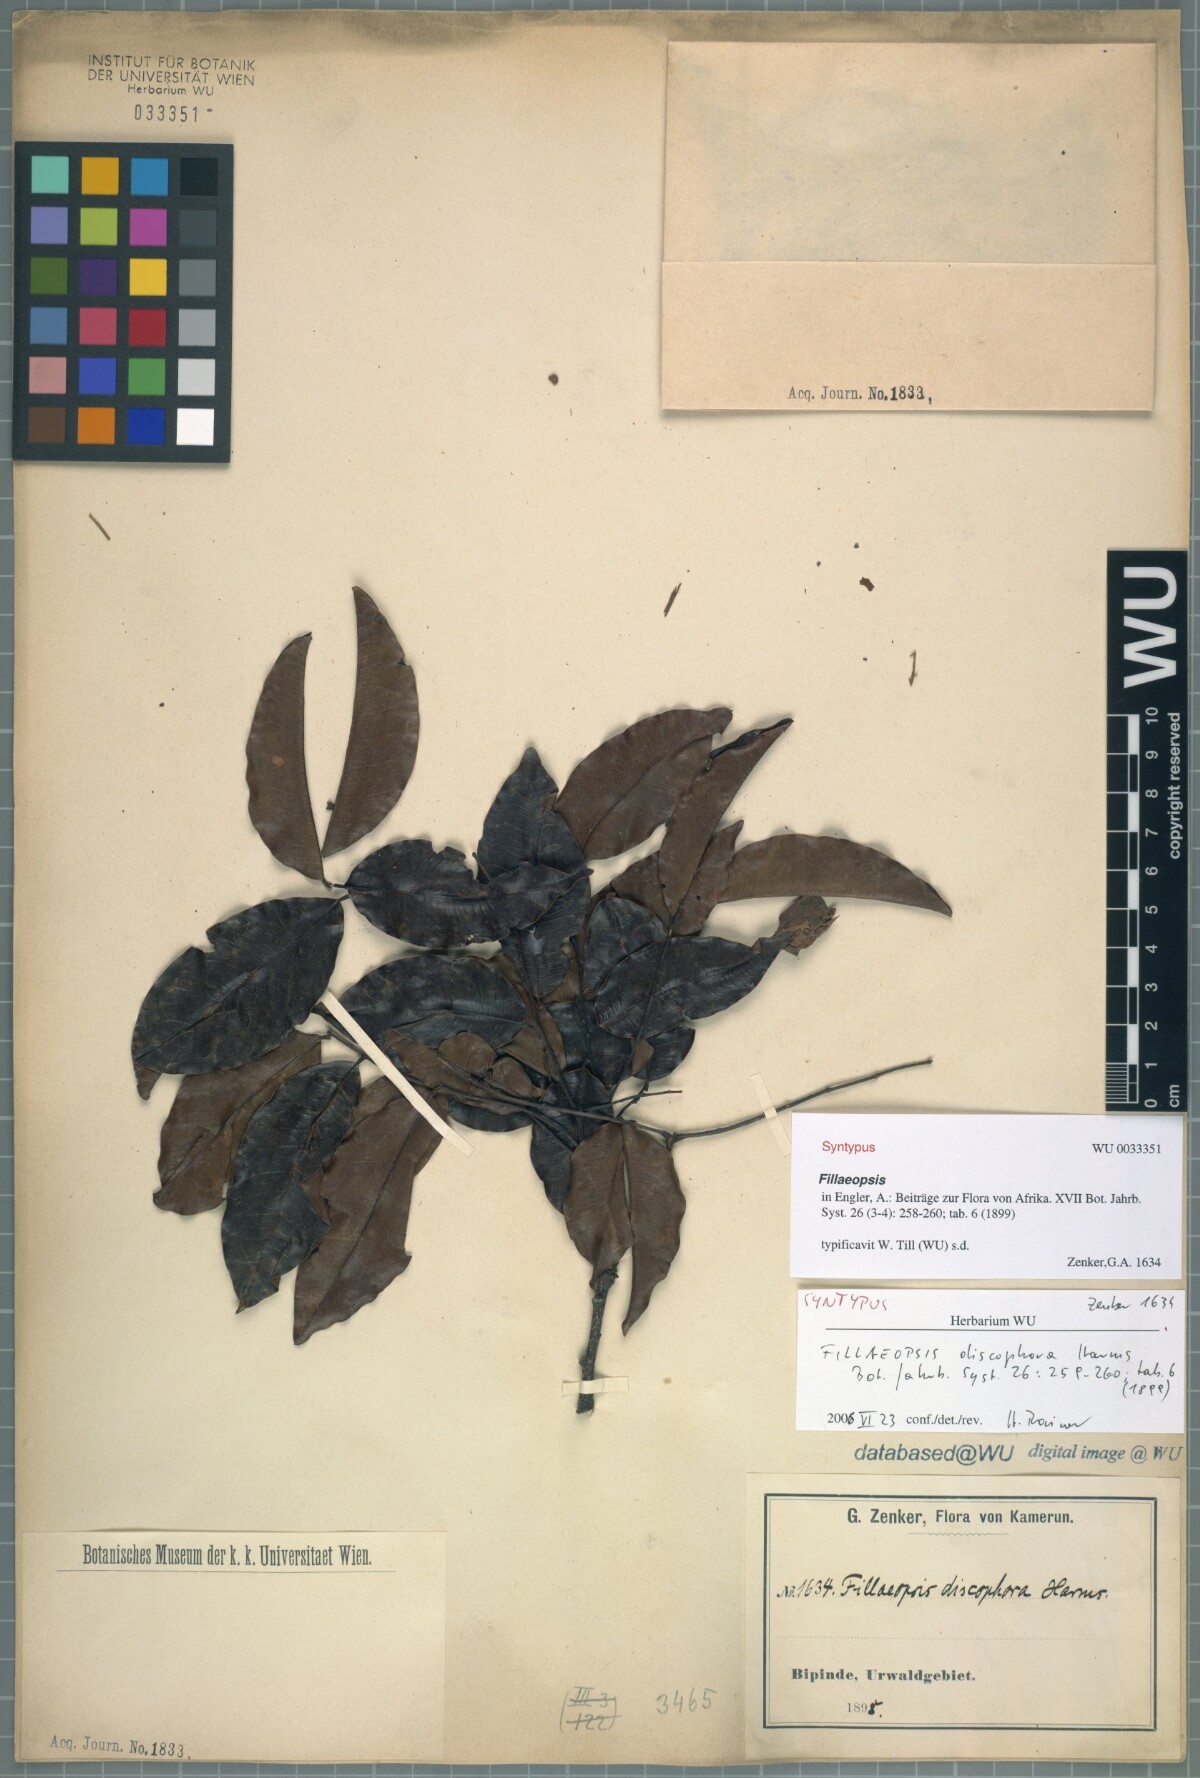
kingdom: Plantae
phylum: Tracheophyta
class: Magnoliopsida
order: Fabales
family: Fabaceae
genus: Fillaeopsis
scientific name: Fillaeopsis discophora
